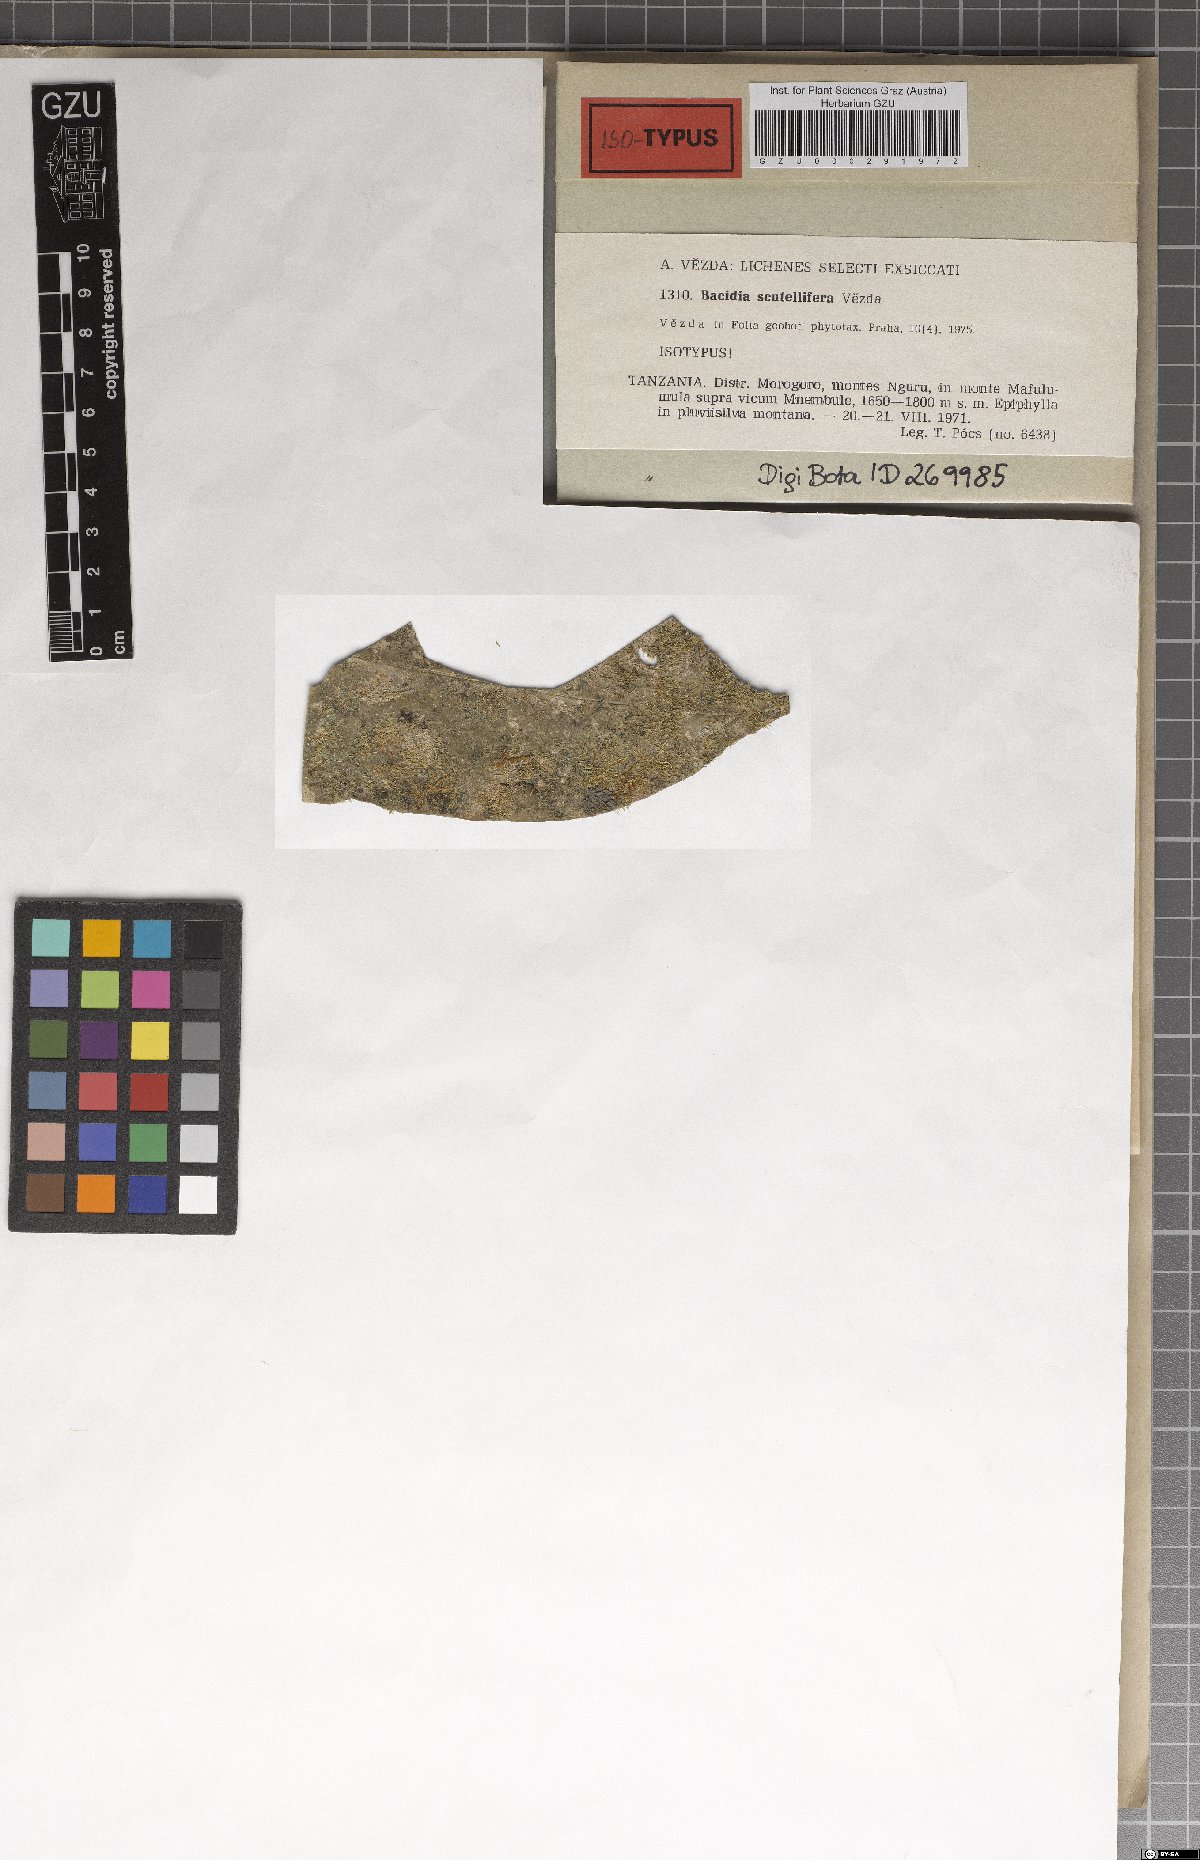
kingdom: Fungi
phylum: Ascomycota
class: Lecanoromycetes
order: Lecanorales
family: Ramalinaceae
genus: Bacidina
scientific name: Bacidina scutellifera
